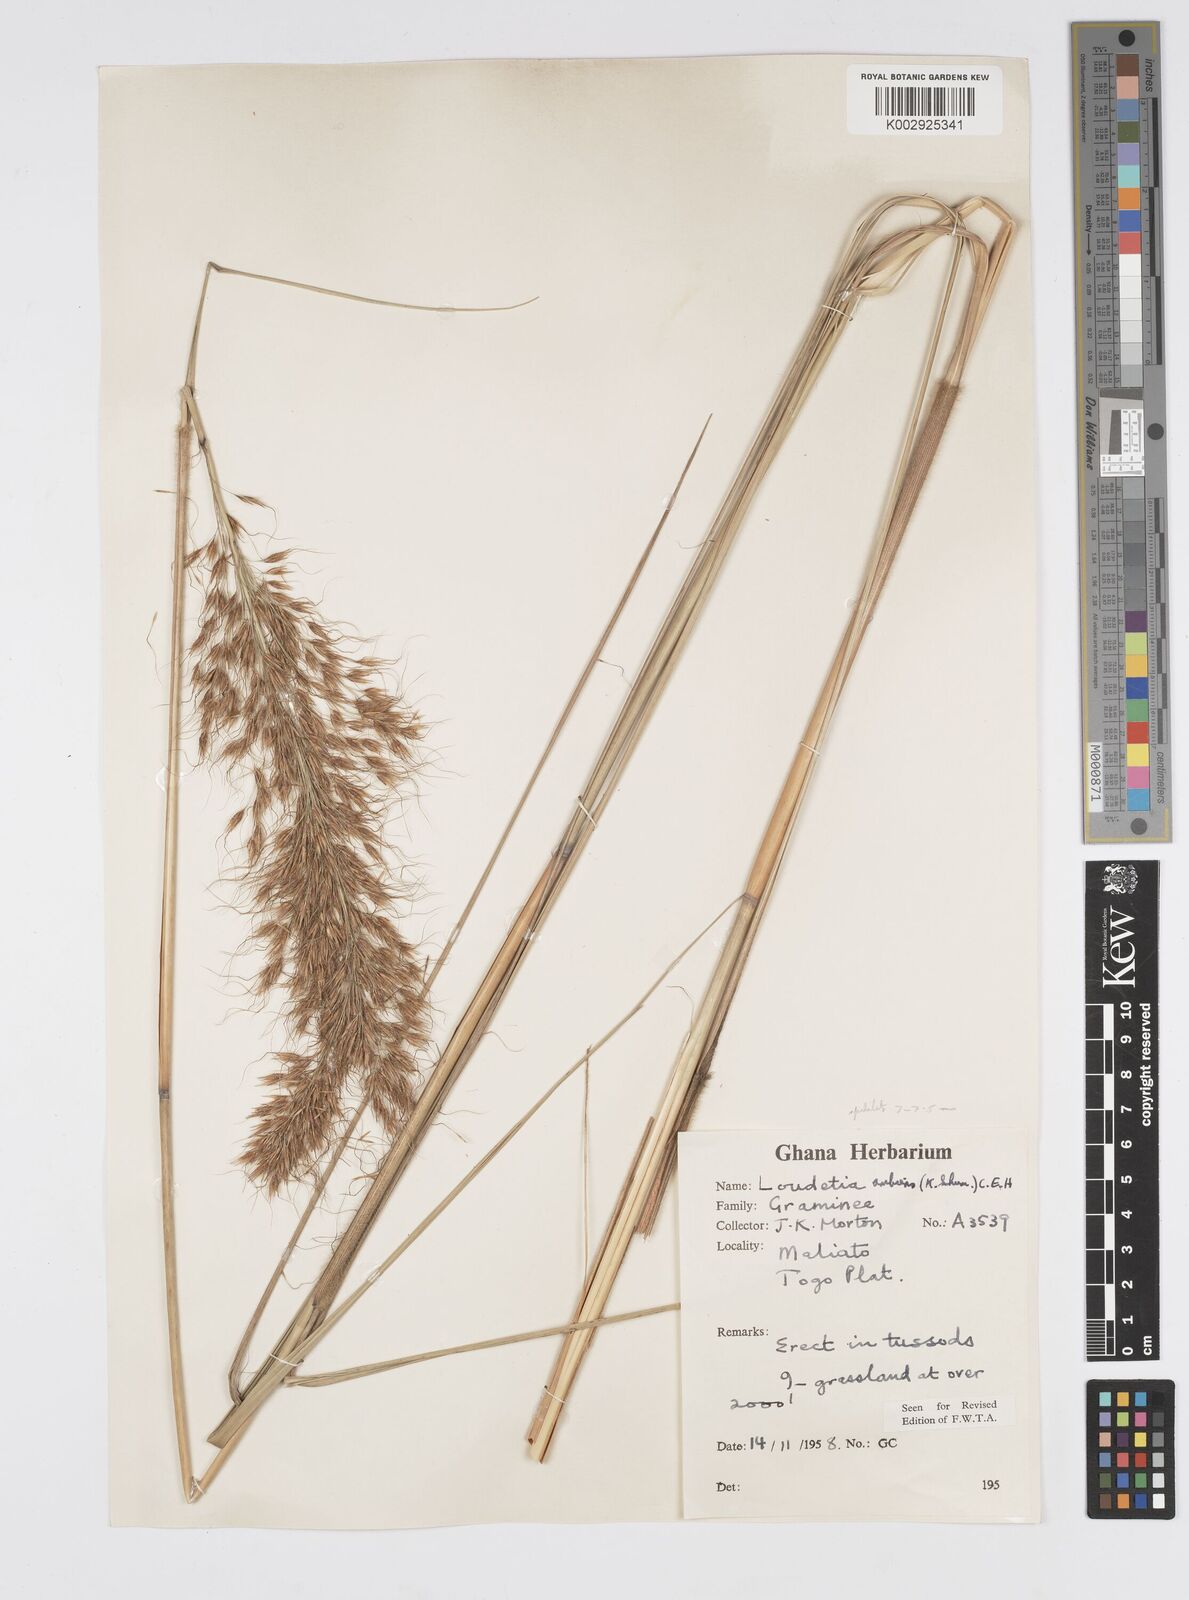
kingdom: Plantae
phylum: Tracheophyta
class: Liliopsida
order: Poales
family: Poaceae
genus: Loudetiopsis
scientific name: Loudetiopsis ambiens
